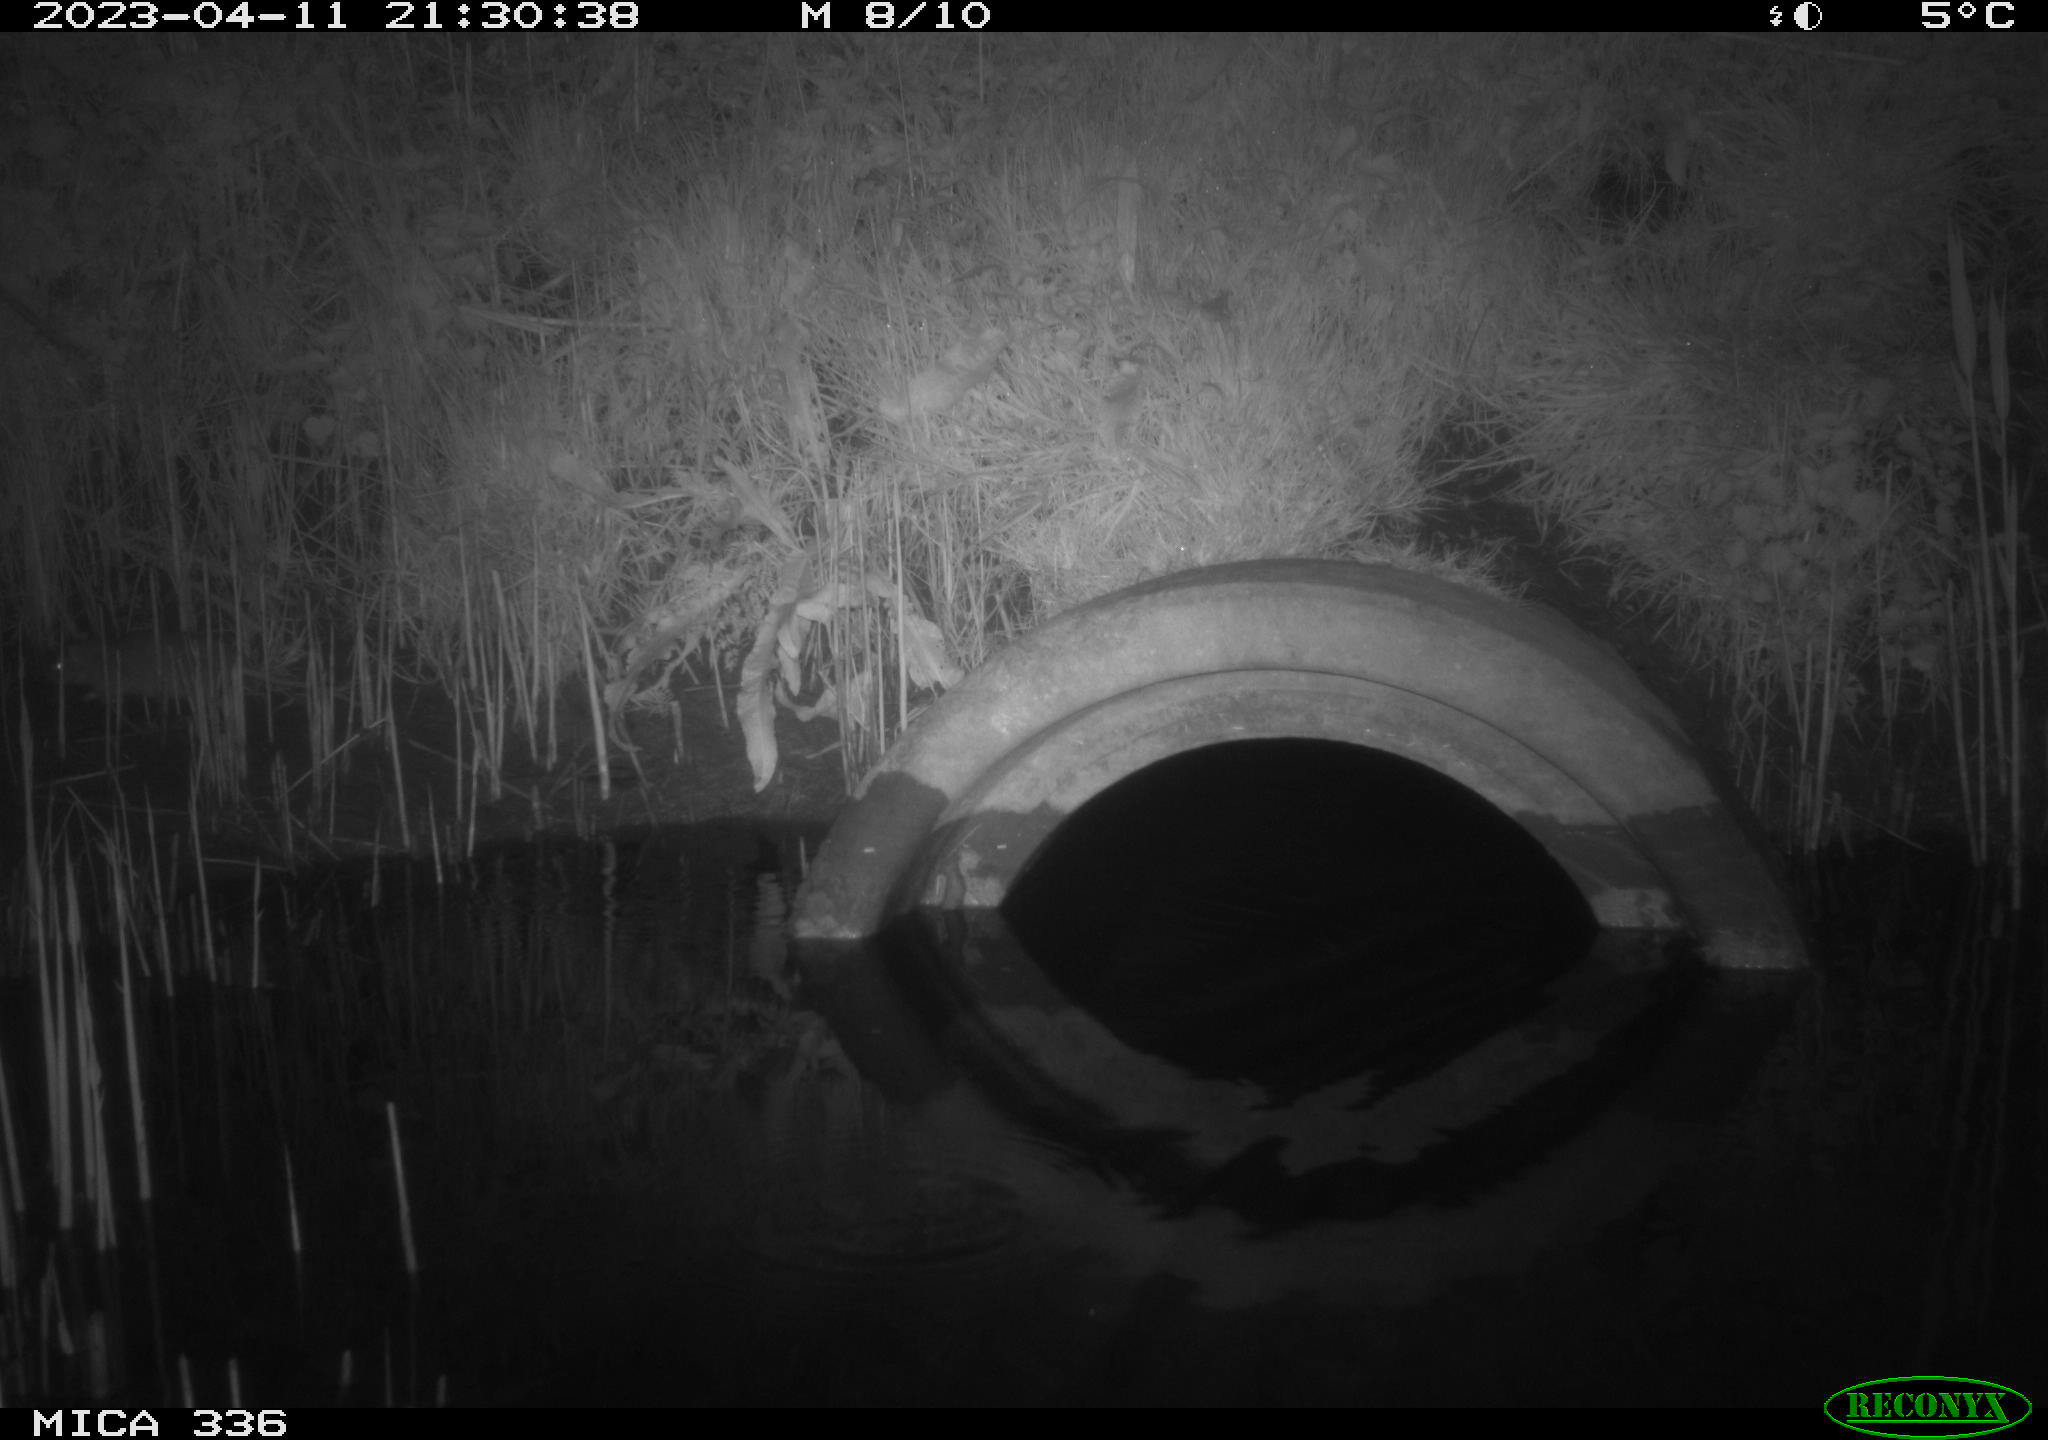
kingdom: Animalia
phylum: Chordata
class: Mammalia
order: Rodentia
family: Muridae
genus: Rattus
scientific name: Rattus norvegicus
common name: Brown rat
